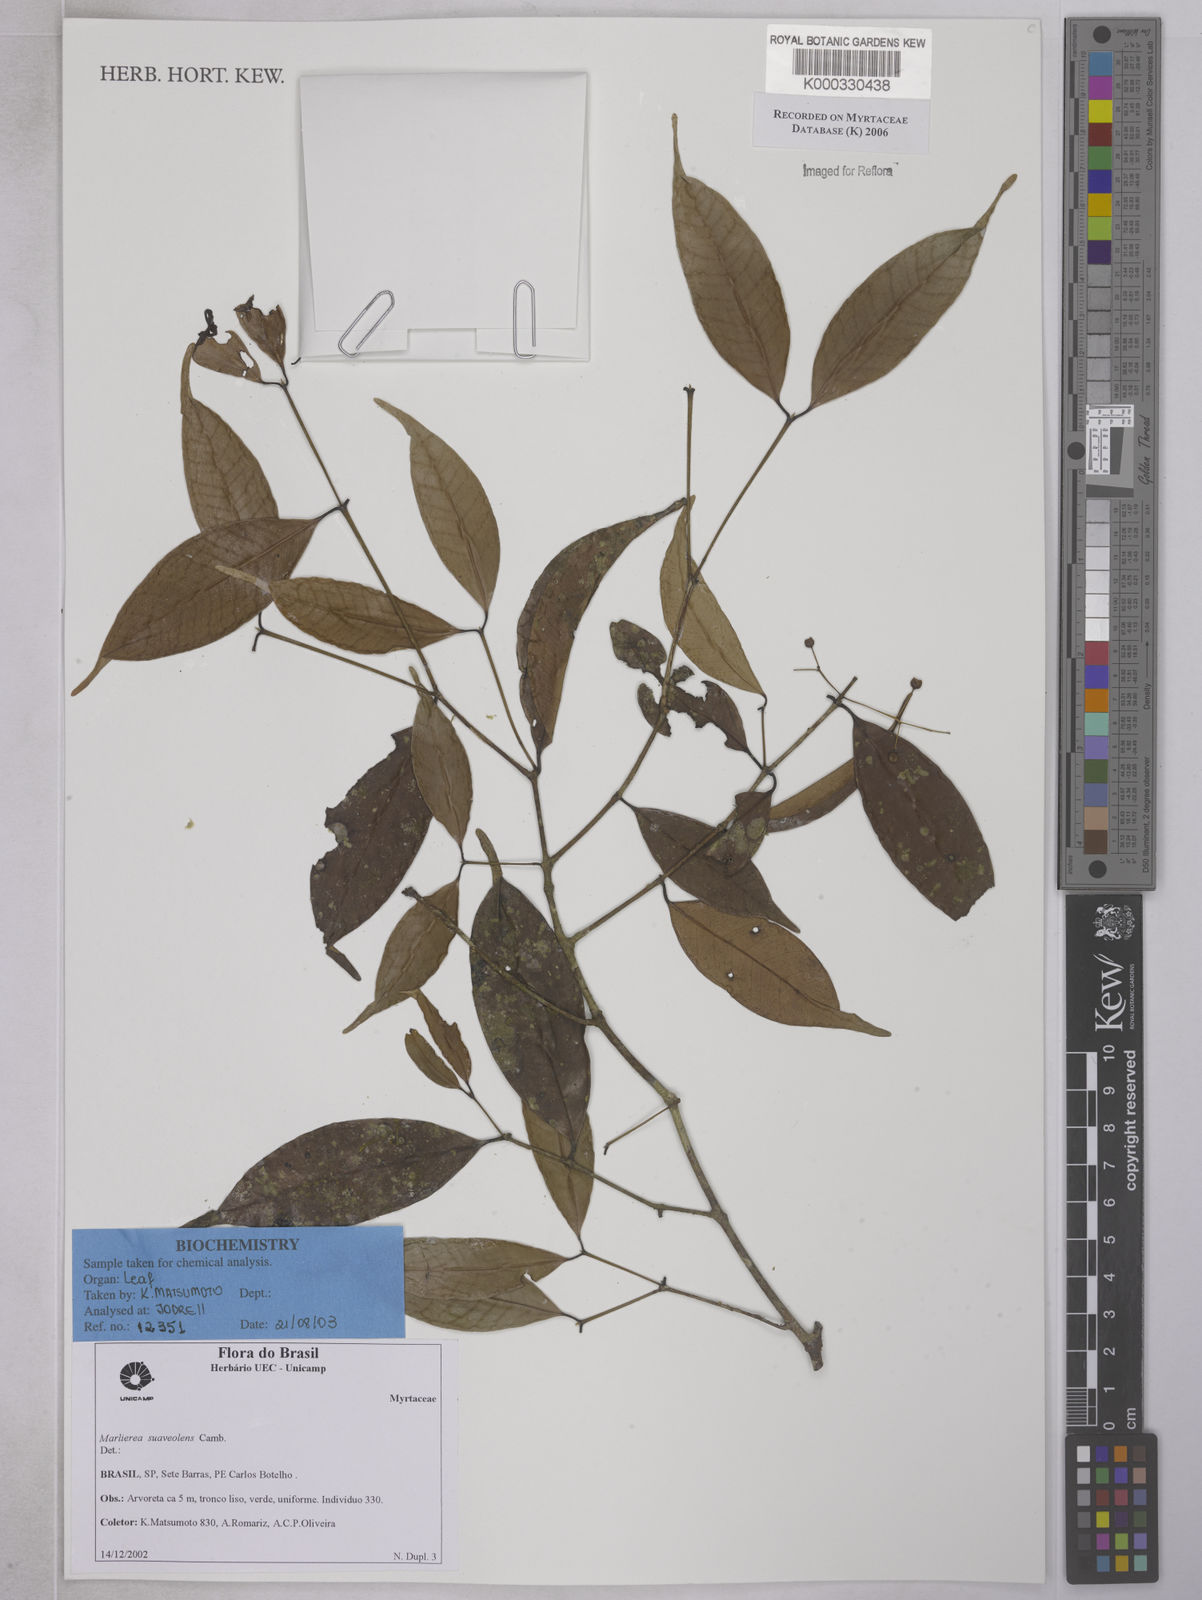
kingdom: Plantae
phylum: Tracheophyta
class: Magnoliopsida
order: Myrtales
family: Myrtaceae
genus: Myrcia
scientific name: Myrcia neosuaveolens
